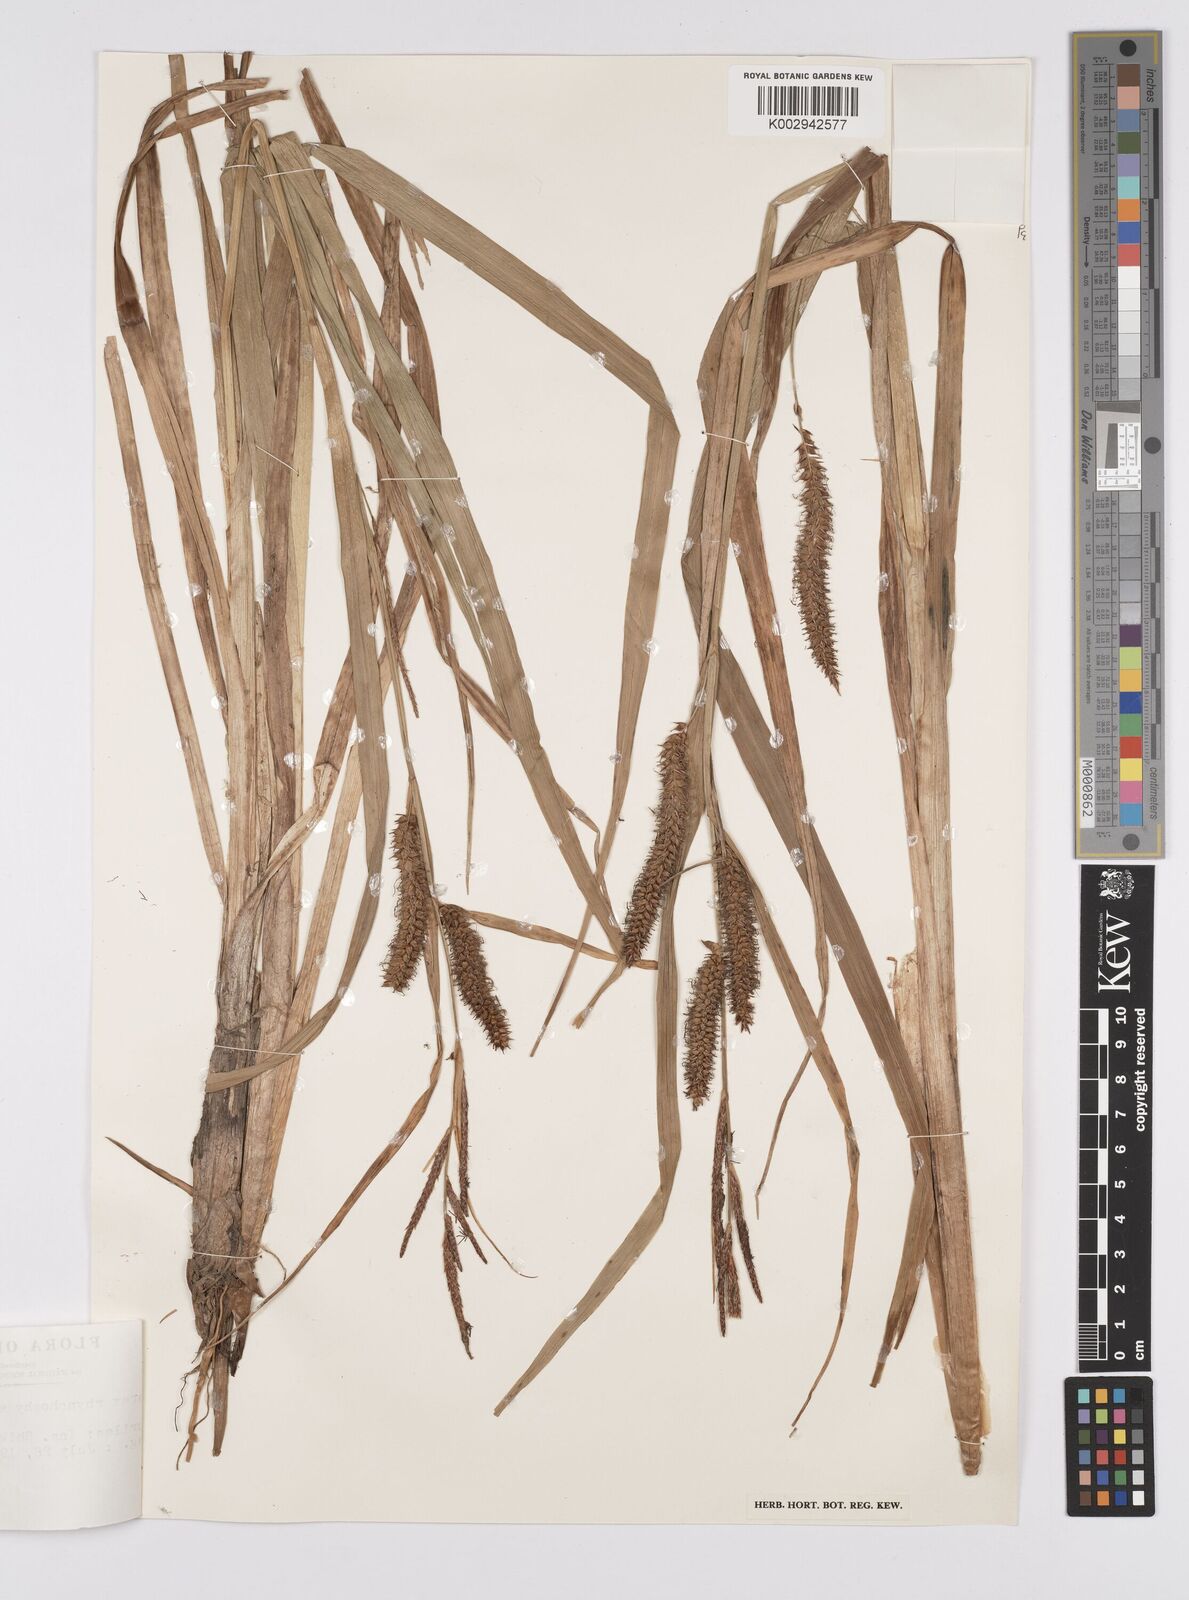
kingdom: Plantae
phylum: Tracheophyta
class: Liliopsida
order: Poales
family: Cyperaceae
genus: Carex
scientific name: Carex utriculata
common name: Beaked sedge
